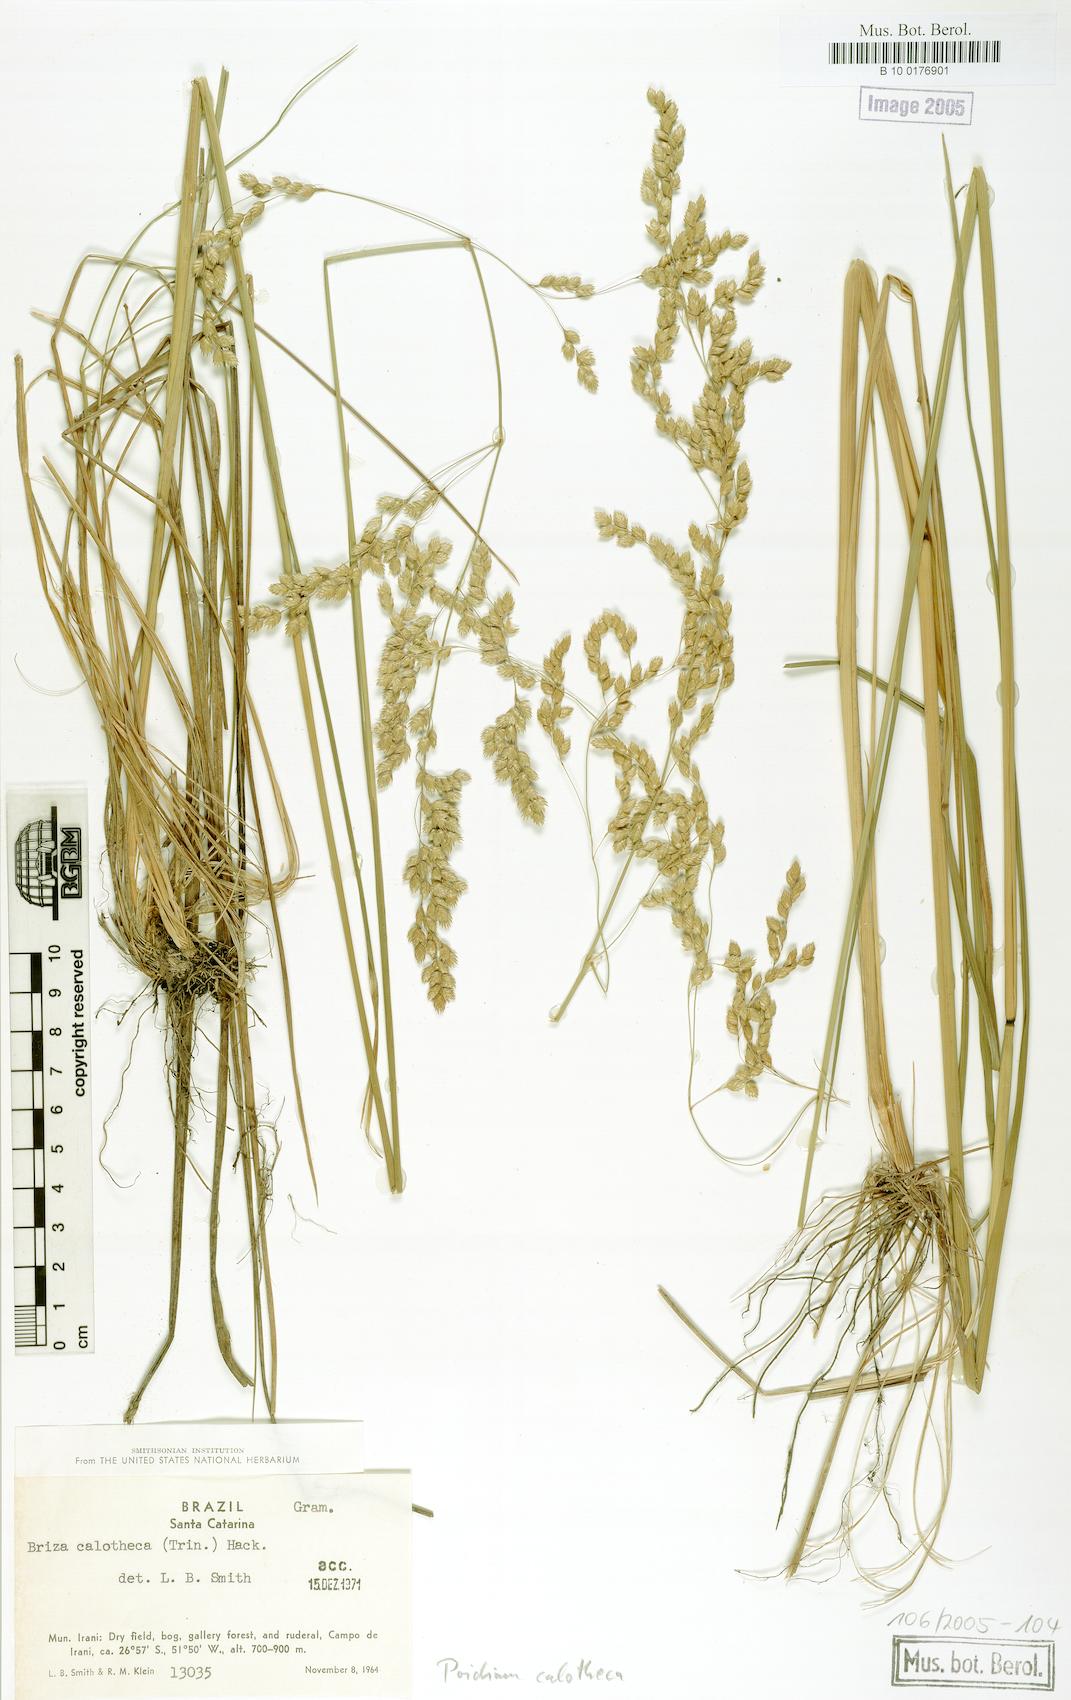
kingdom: Plantae
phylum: Tracheophyta
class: Liliopsida
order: Poales
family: Poaceae
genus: Poidium
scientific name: Poidium calotheca
